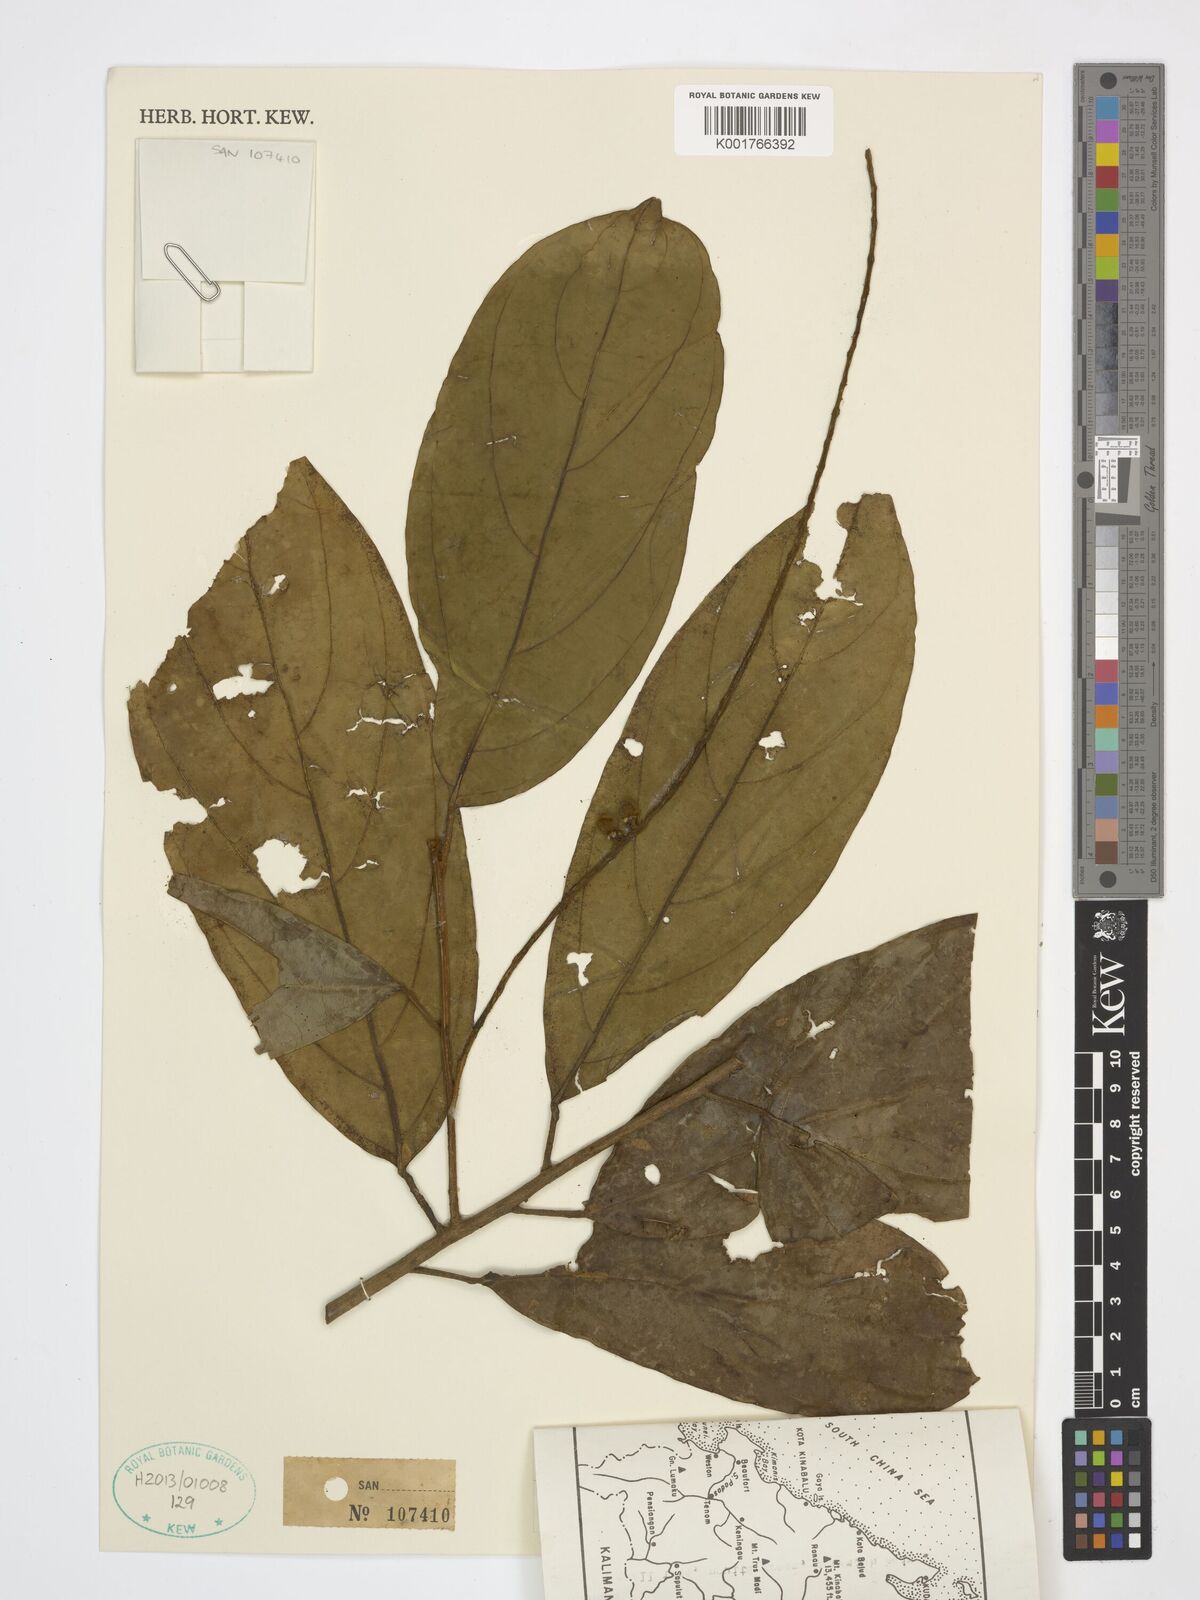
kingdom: Plantae
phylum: Tracheophyta
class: Magnoliopsida
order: Malpighiales
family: Achariaceae
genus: Ryparosa
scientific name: Ryparosa hullettii
